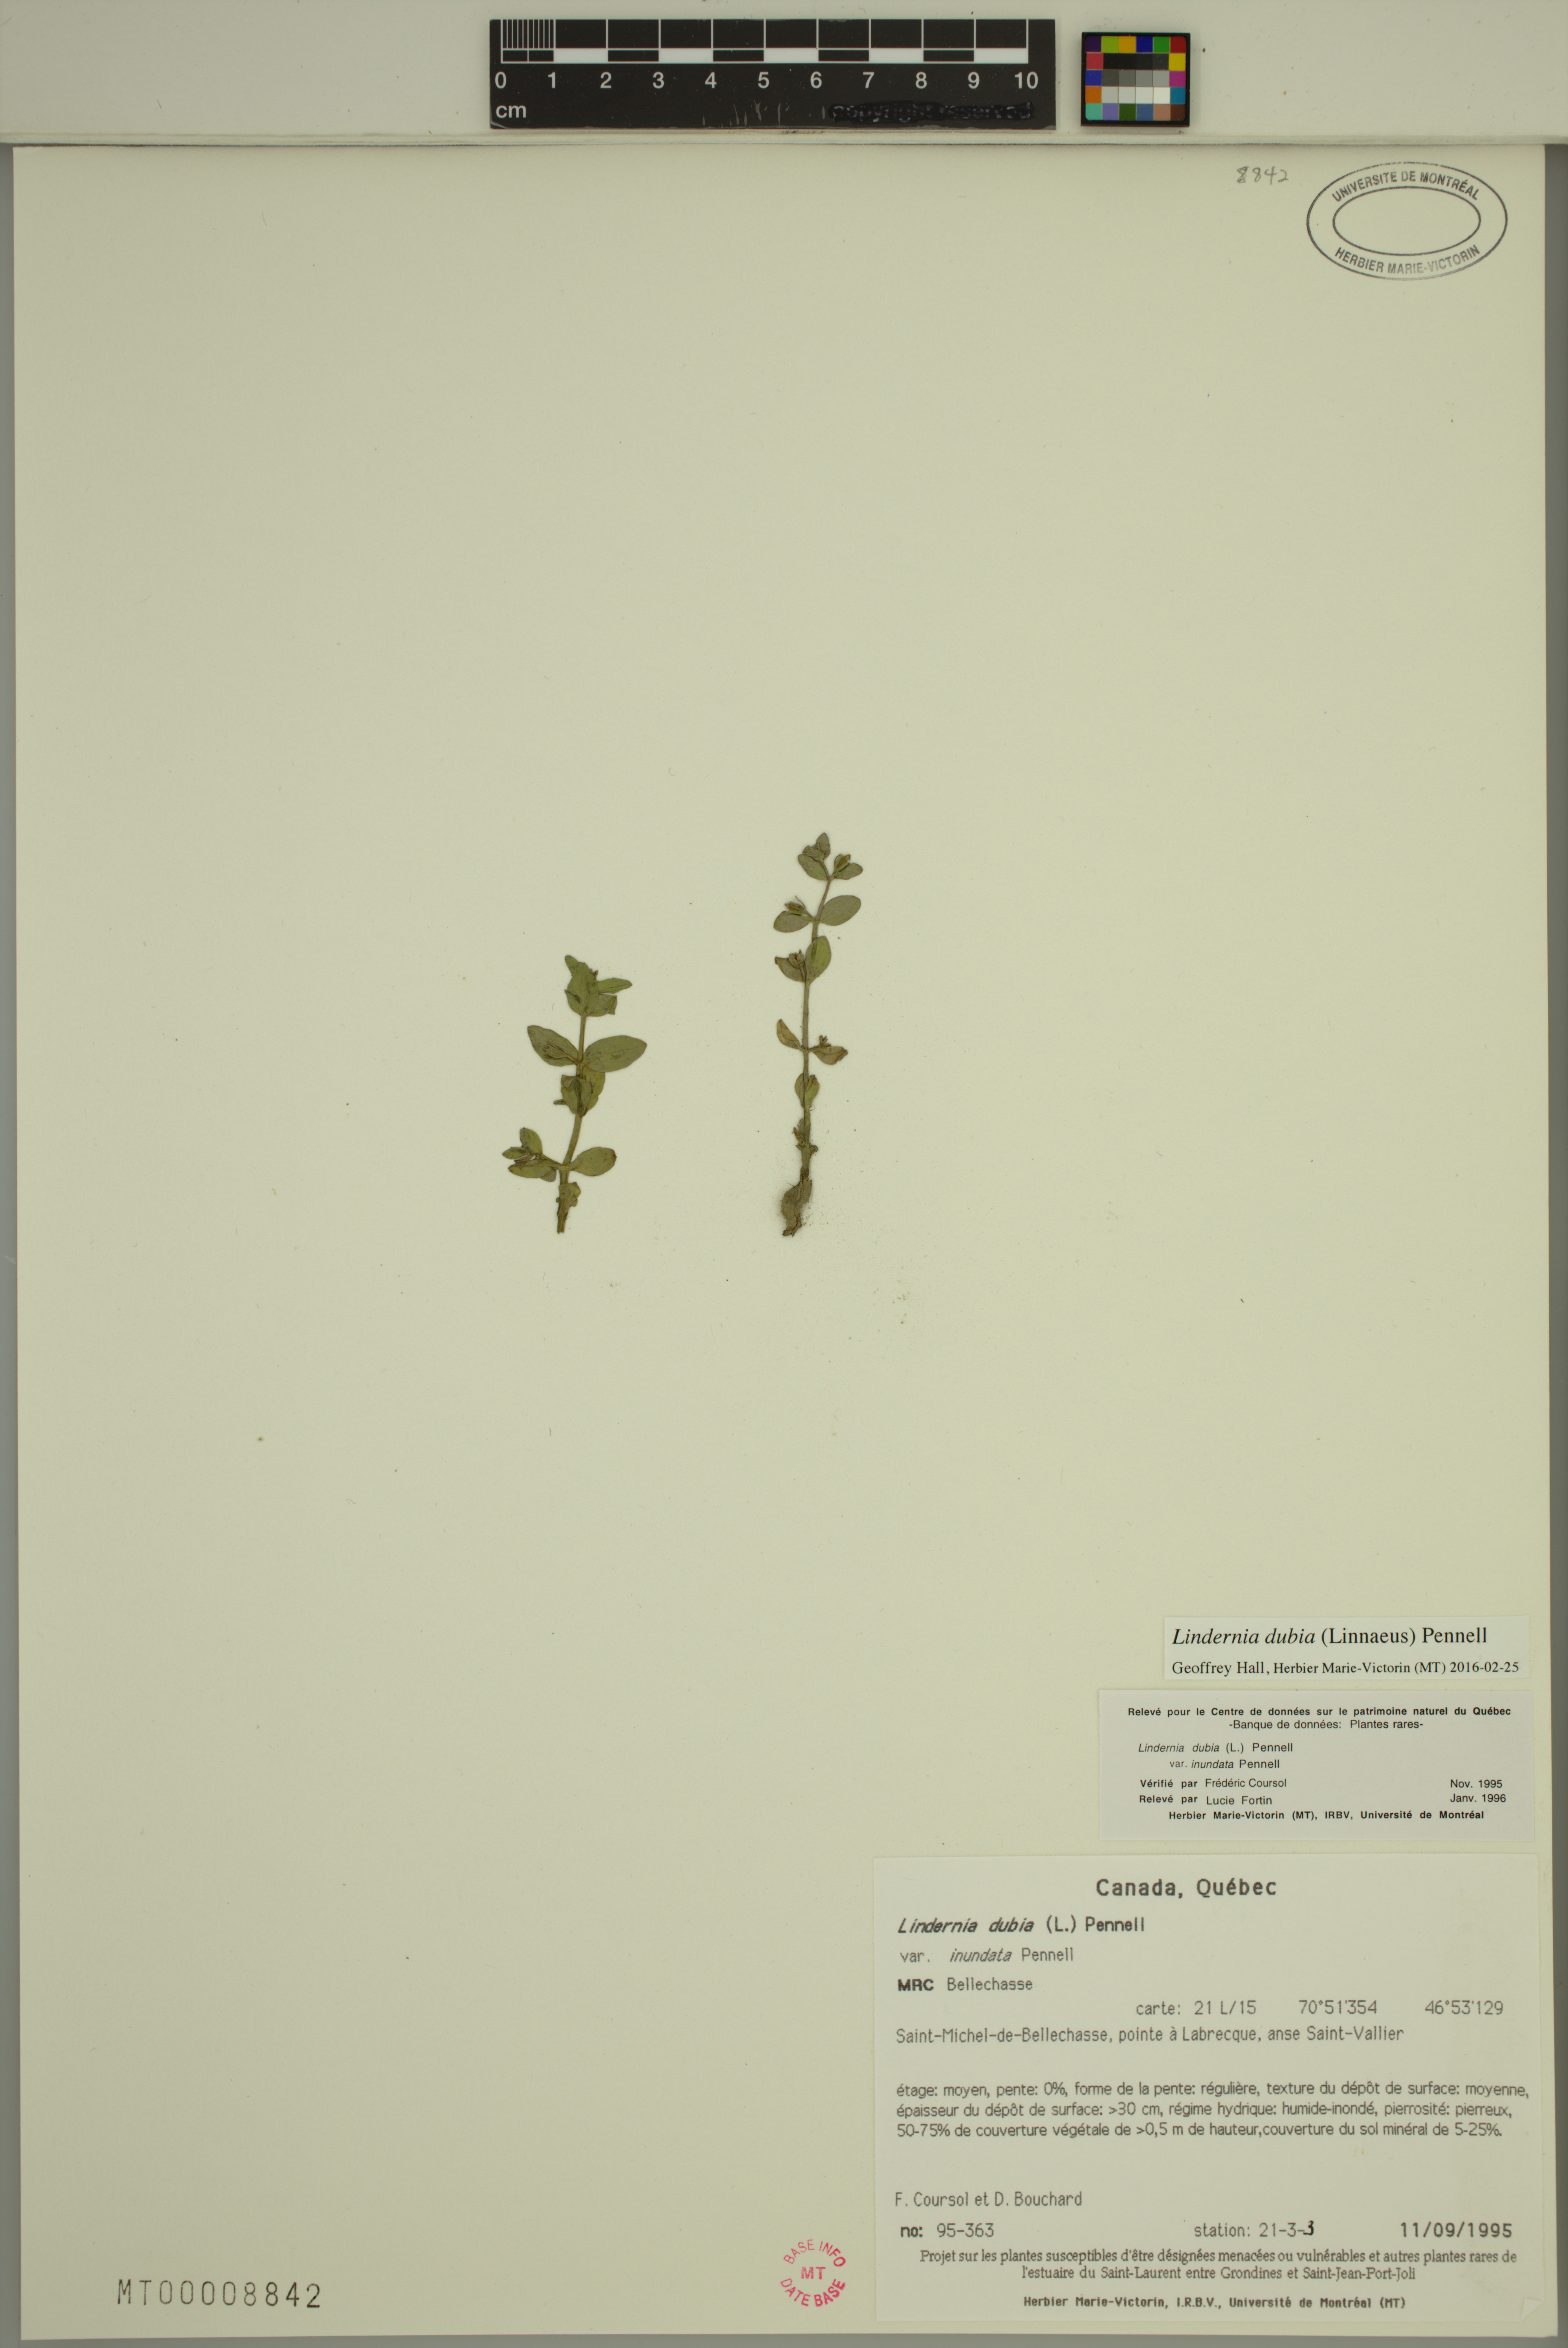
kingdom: Plantae
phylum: Tracheophyta
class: Magnoliopsida
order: Lamiales
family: Linderniaceae
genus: Lindernia
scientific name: Lindernia dubia
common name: Annual false pimpernel
